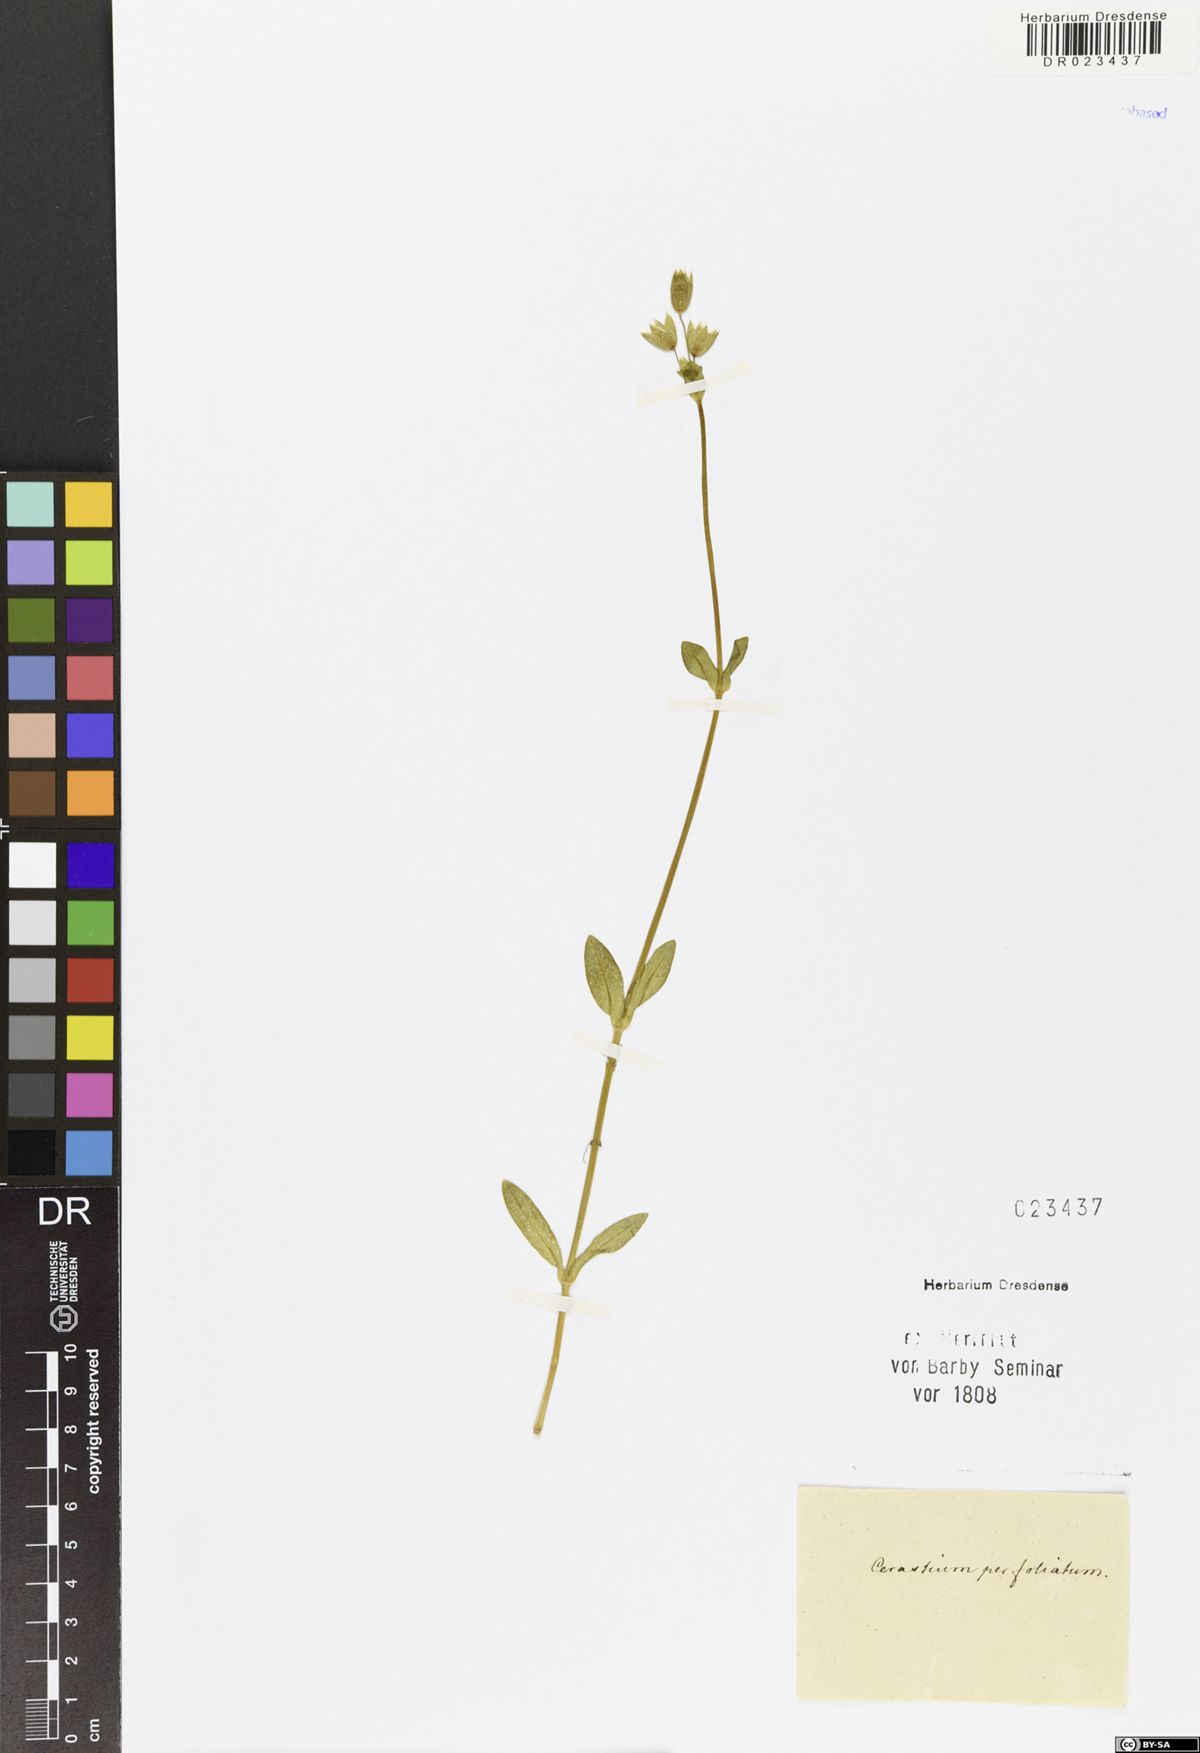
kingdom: Plantae
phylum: Tracheophyta
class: Magnoliopsida
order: Caryophyllales
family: Caryophyllaceae
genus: Dichodon
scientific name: Dichodon perfoliatum
